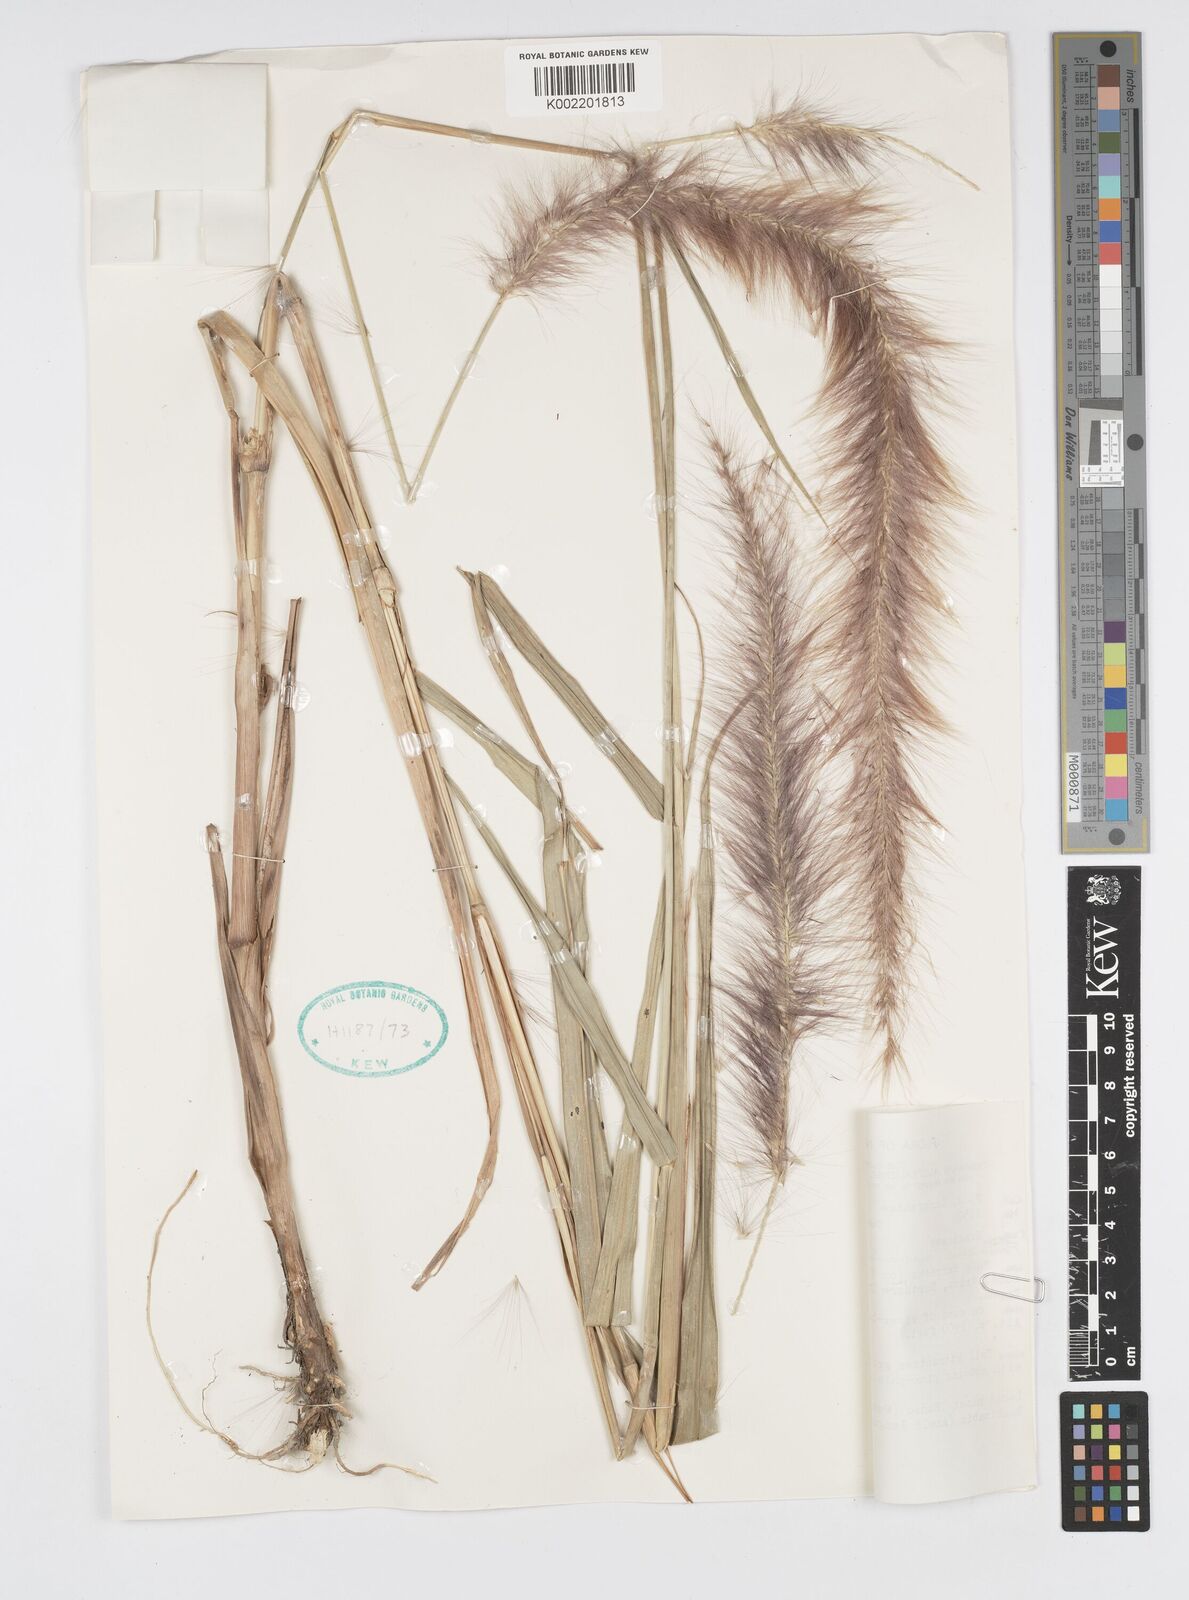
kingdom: Plantae
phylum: Tracheophyta
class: Liliopsida
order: Poales
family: Poaceae
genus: Cenchrus
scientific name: Cenchrus purpureus
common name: Elephant grass
